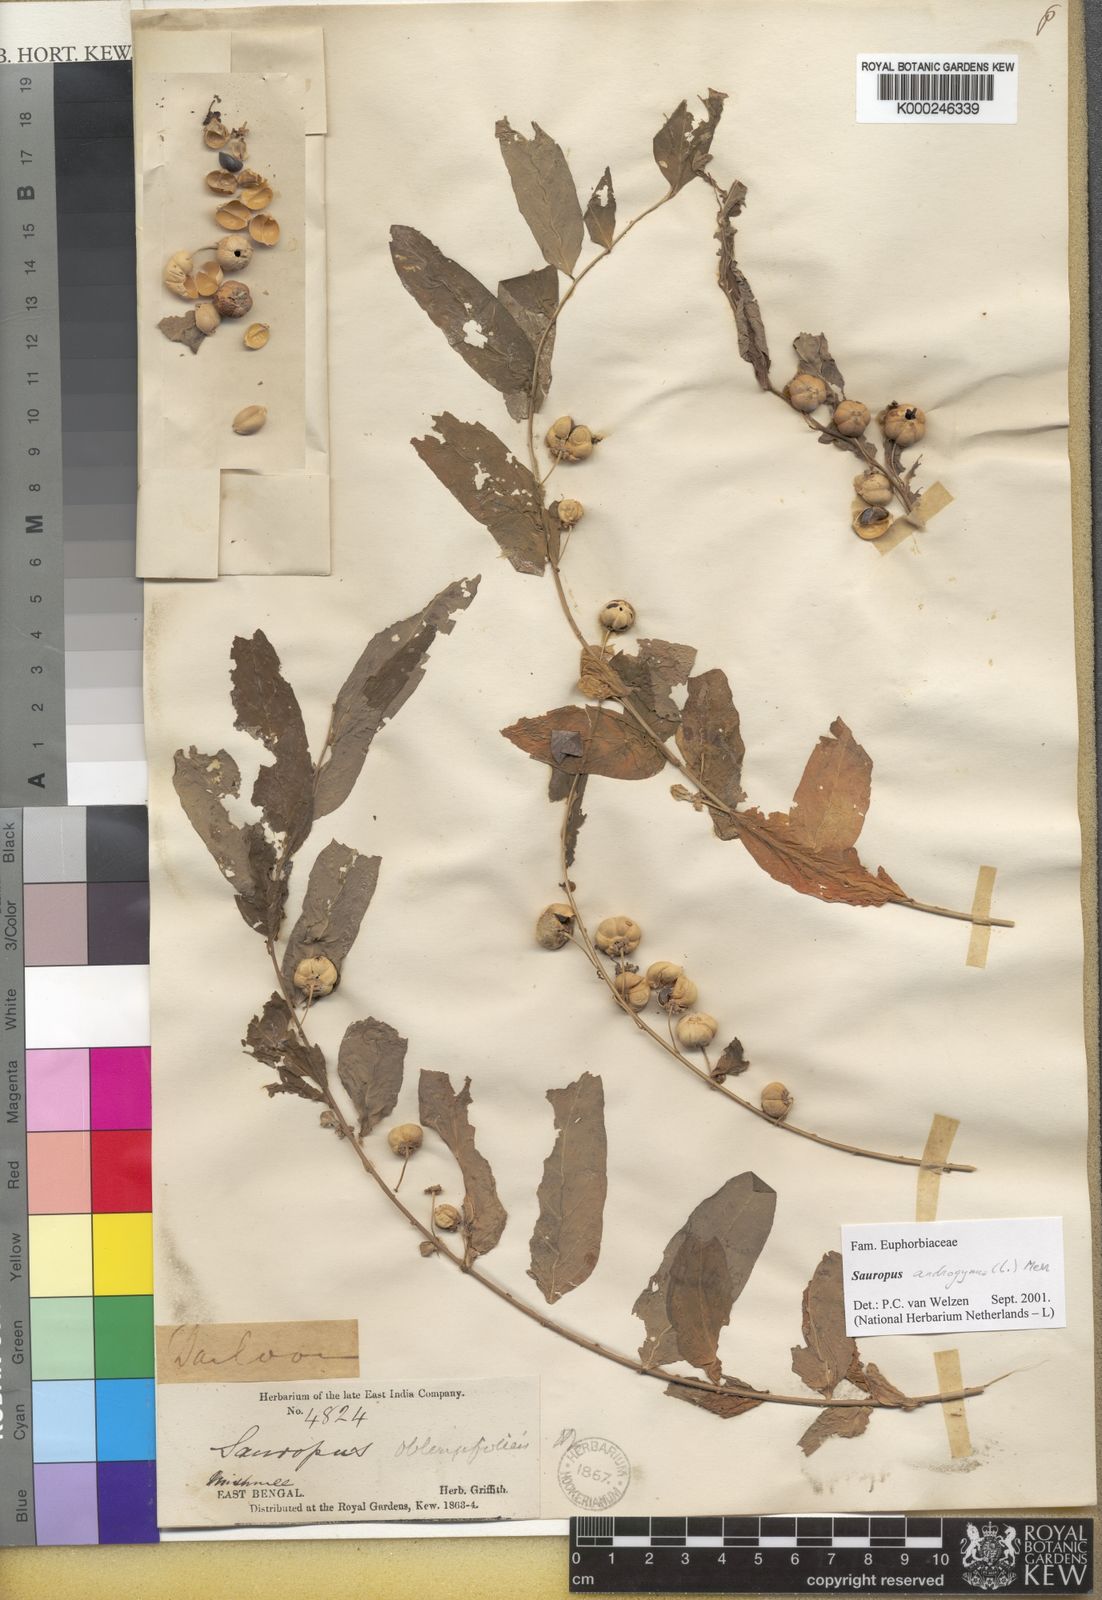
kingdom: Plantae
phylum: Tracheophyta
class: Magnoliopsida
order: Malpighiales
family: Phyllanthaceae
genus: Breynia
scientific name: Breynia androgyna
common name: Star gooseberry
